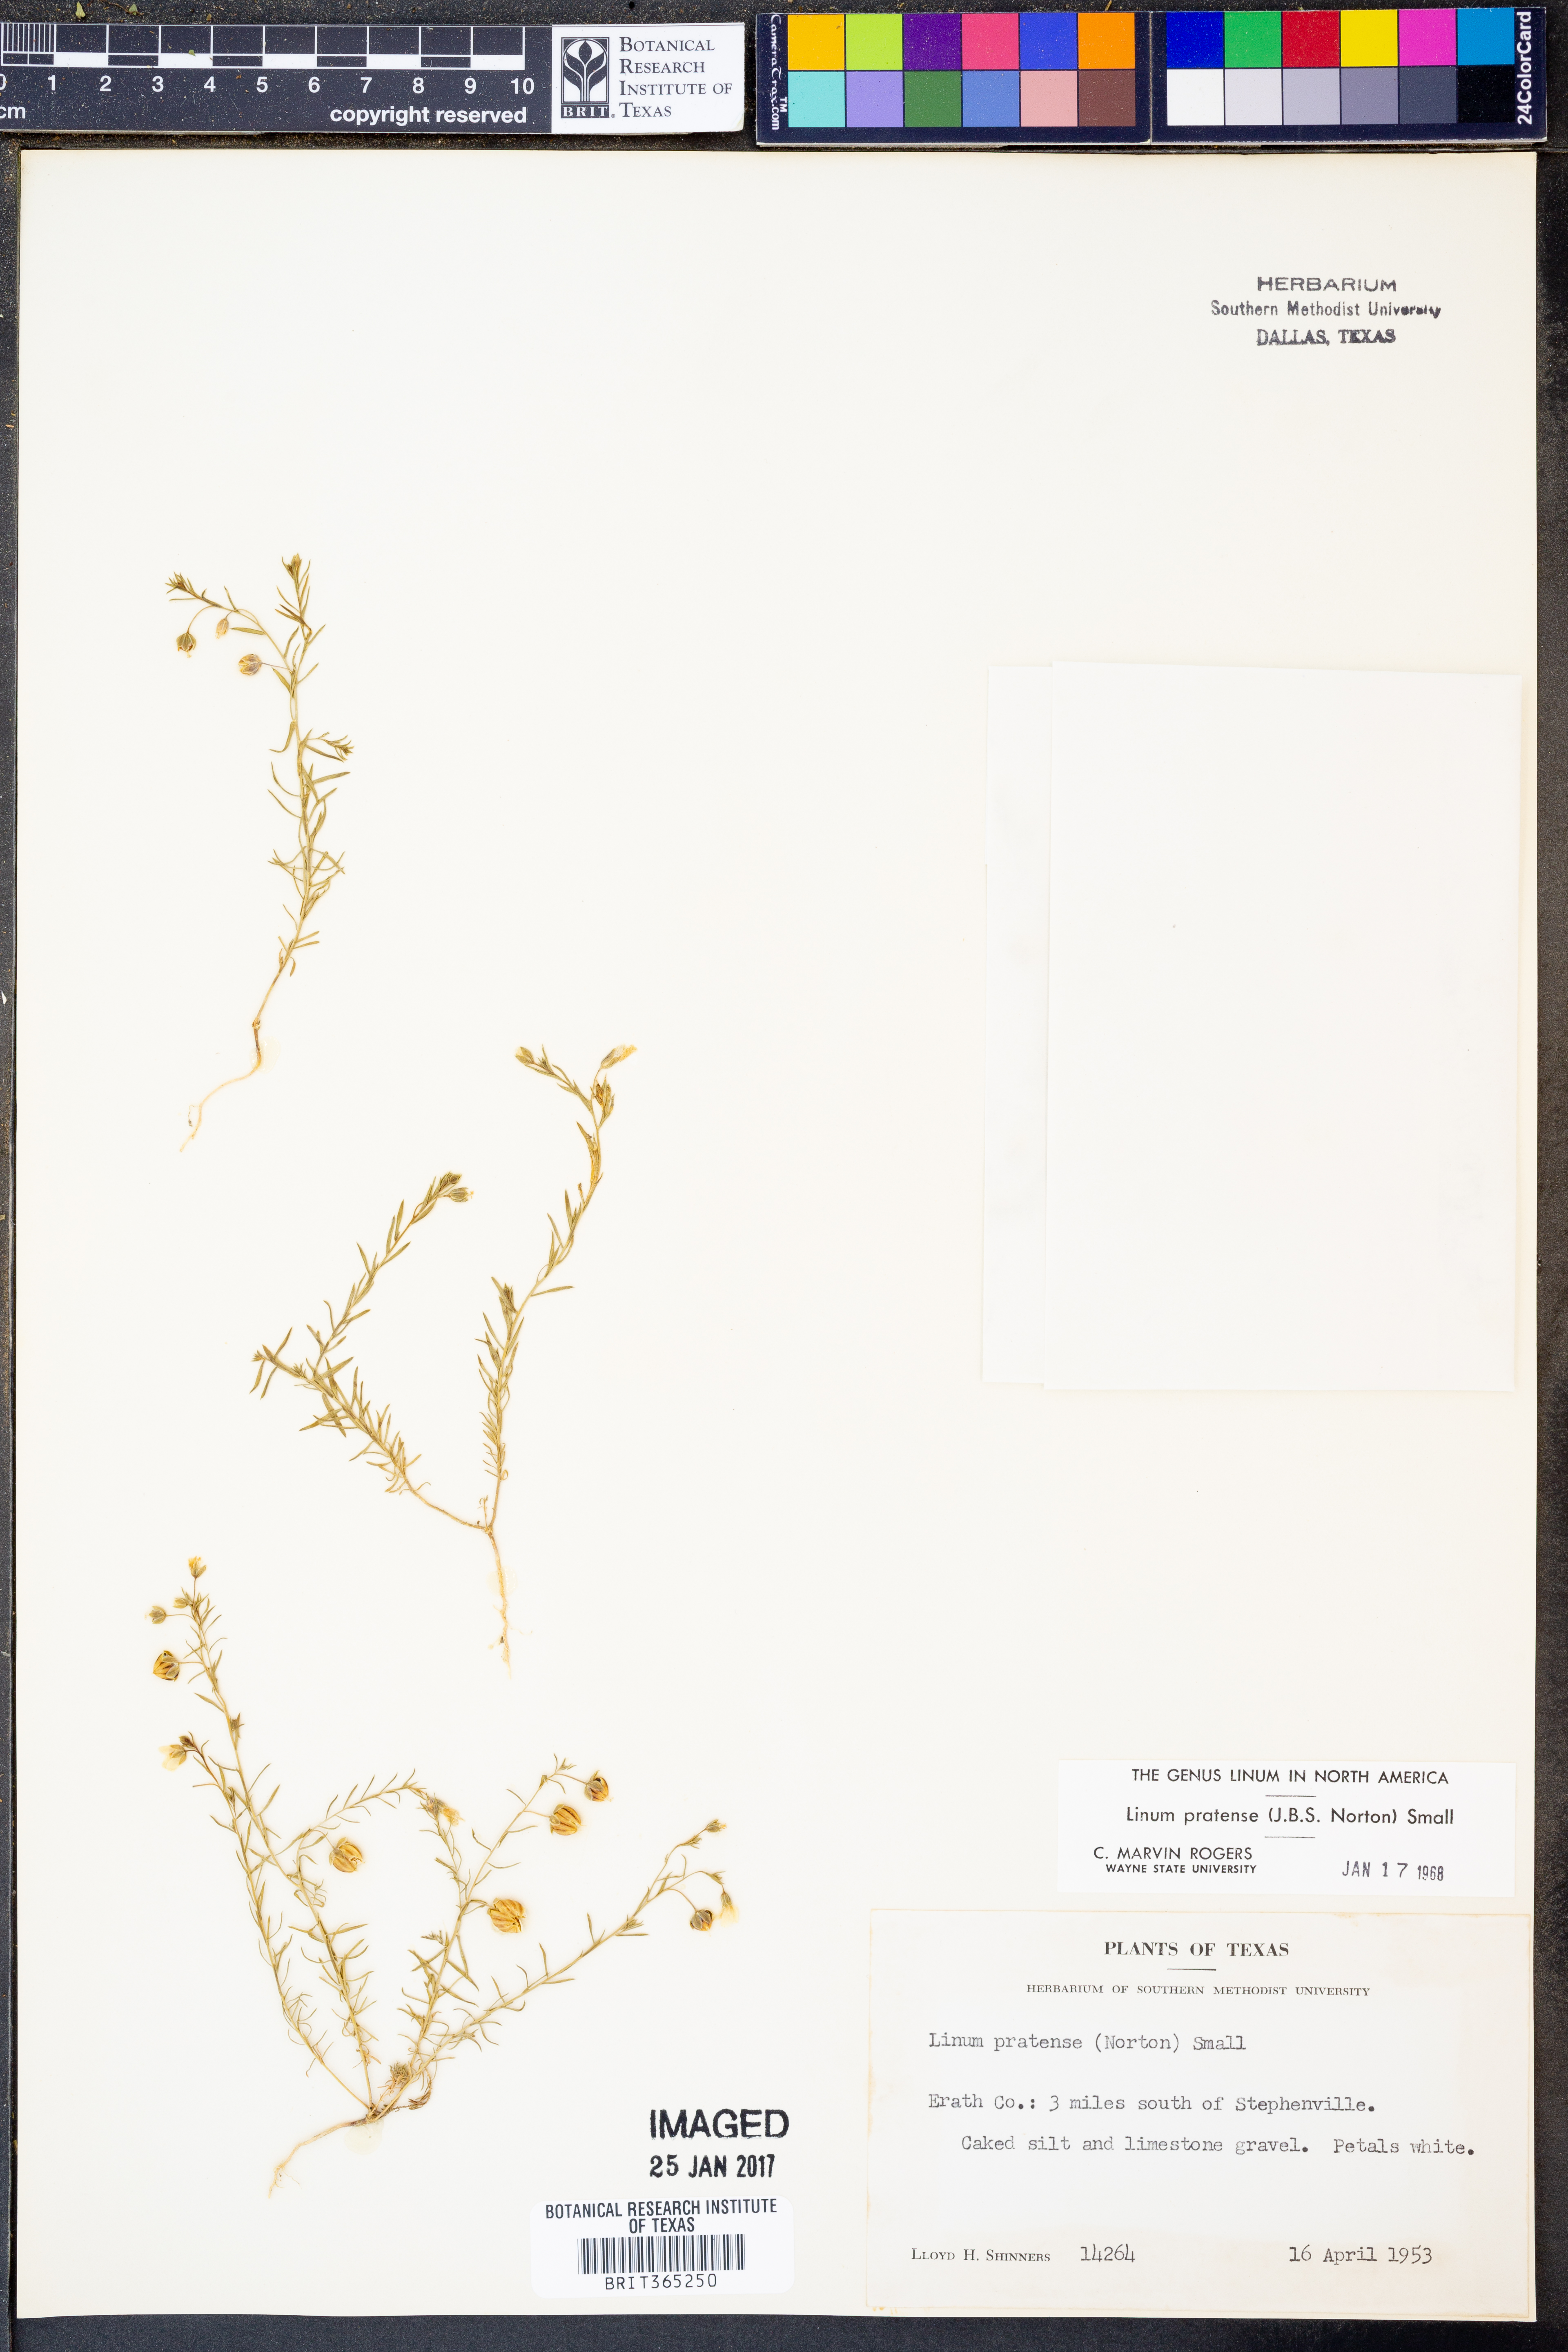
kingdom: Plantae
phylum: Tracheophyta
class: Magnoliopsida
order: Malpighiales
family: Linaceae
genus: Linum
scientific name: Linum pratense
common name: Norton's flax
